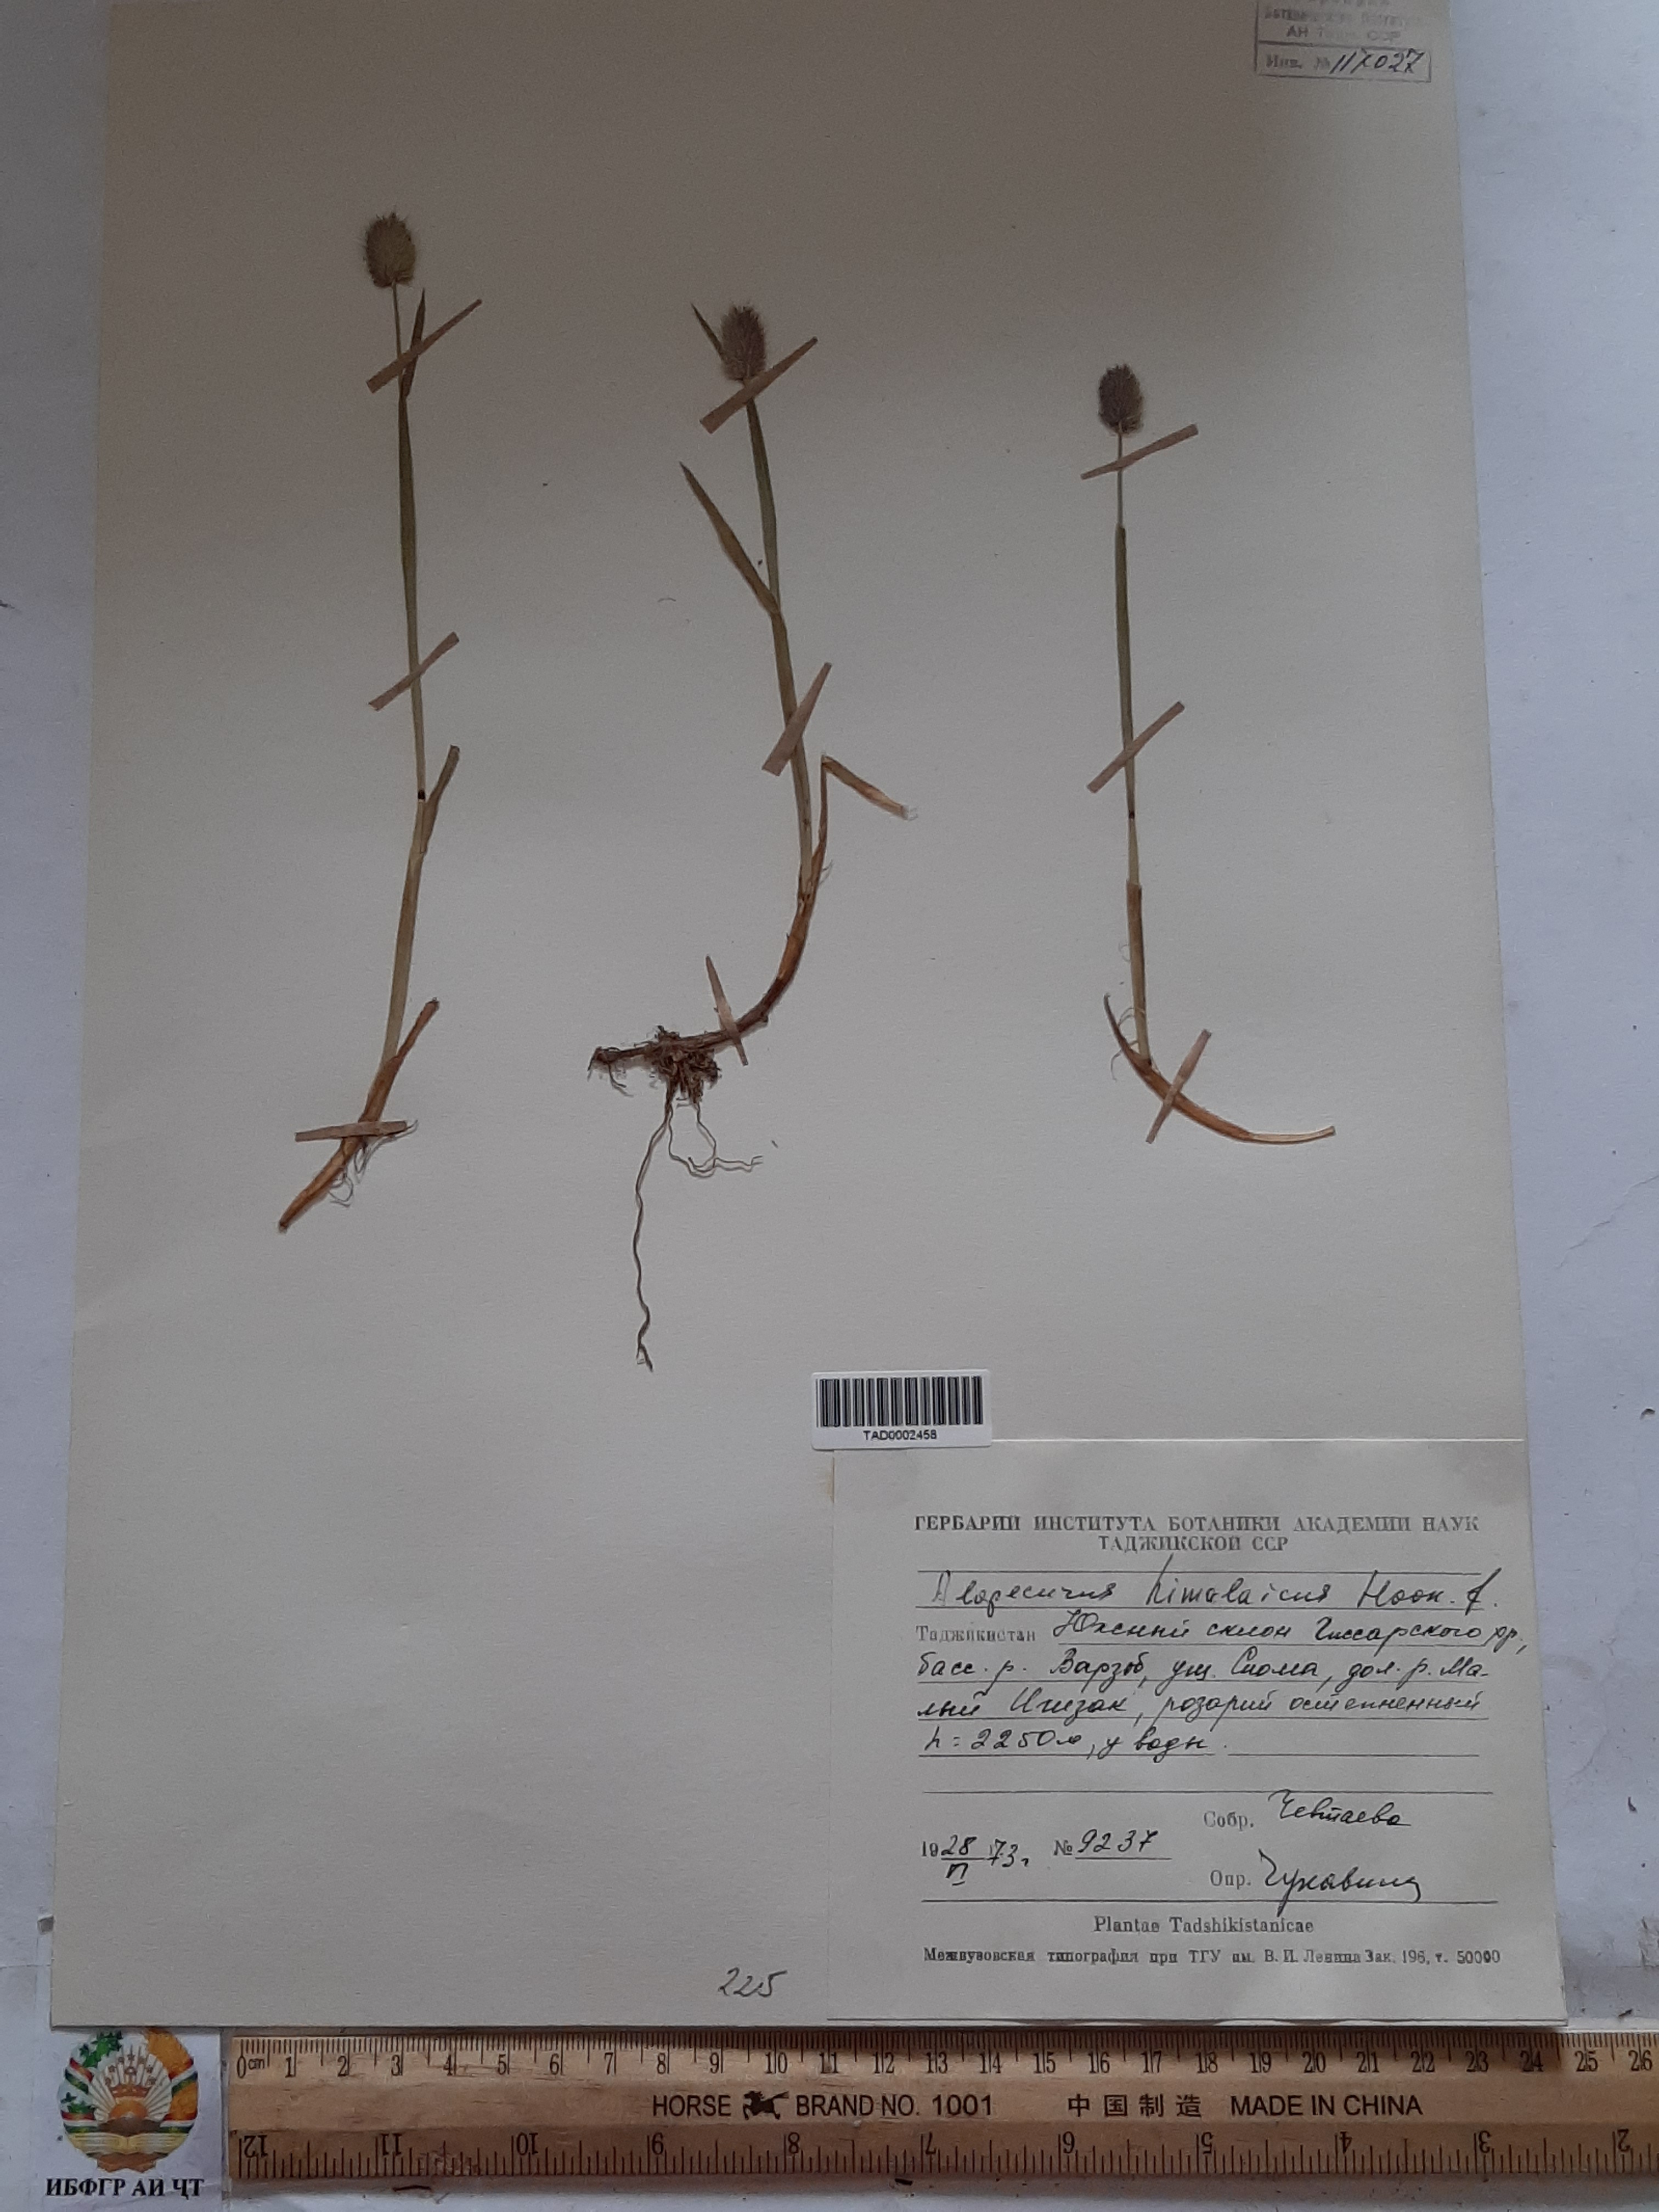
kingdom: Plantae
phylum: Tracheophyta
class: Liliopsida
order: Poales
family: Poaceae
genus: Alopecurus
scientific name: Alopecurus himalaicus
